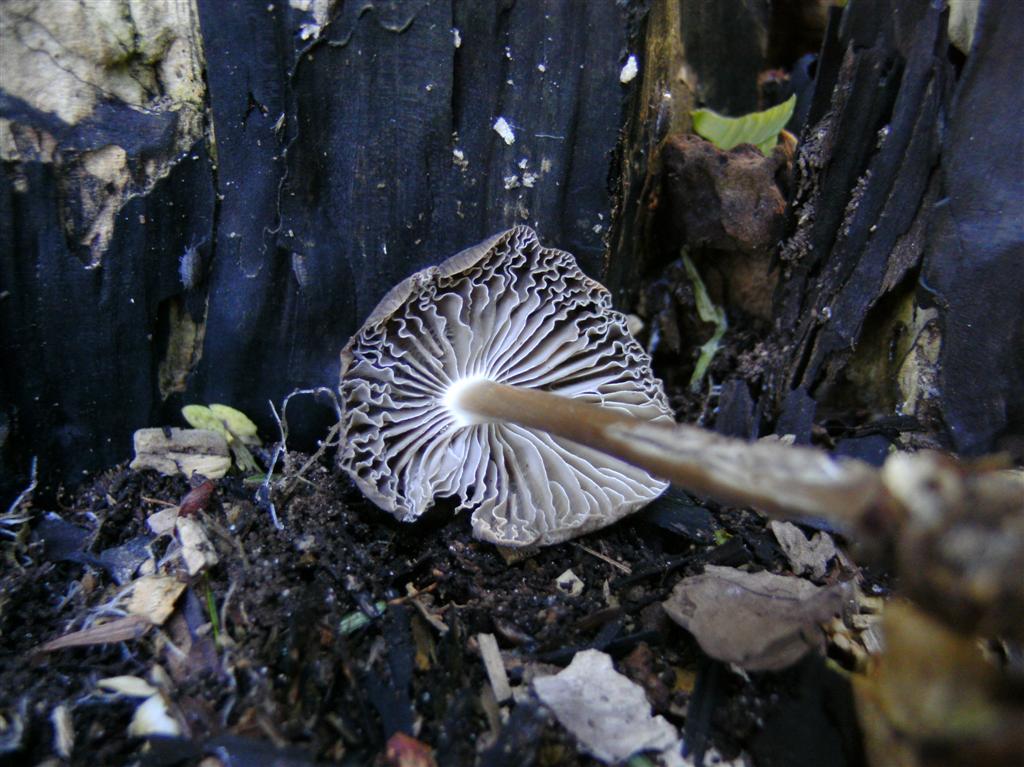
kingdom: Fungi
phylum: Basidiomycota
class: Agaricomycetes
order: Agaricales
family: Mycenaceae
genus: Mycena
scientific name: Mycena galericulata
